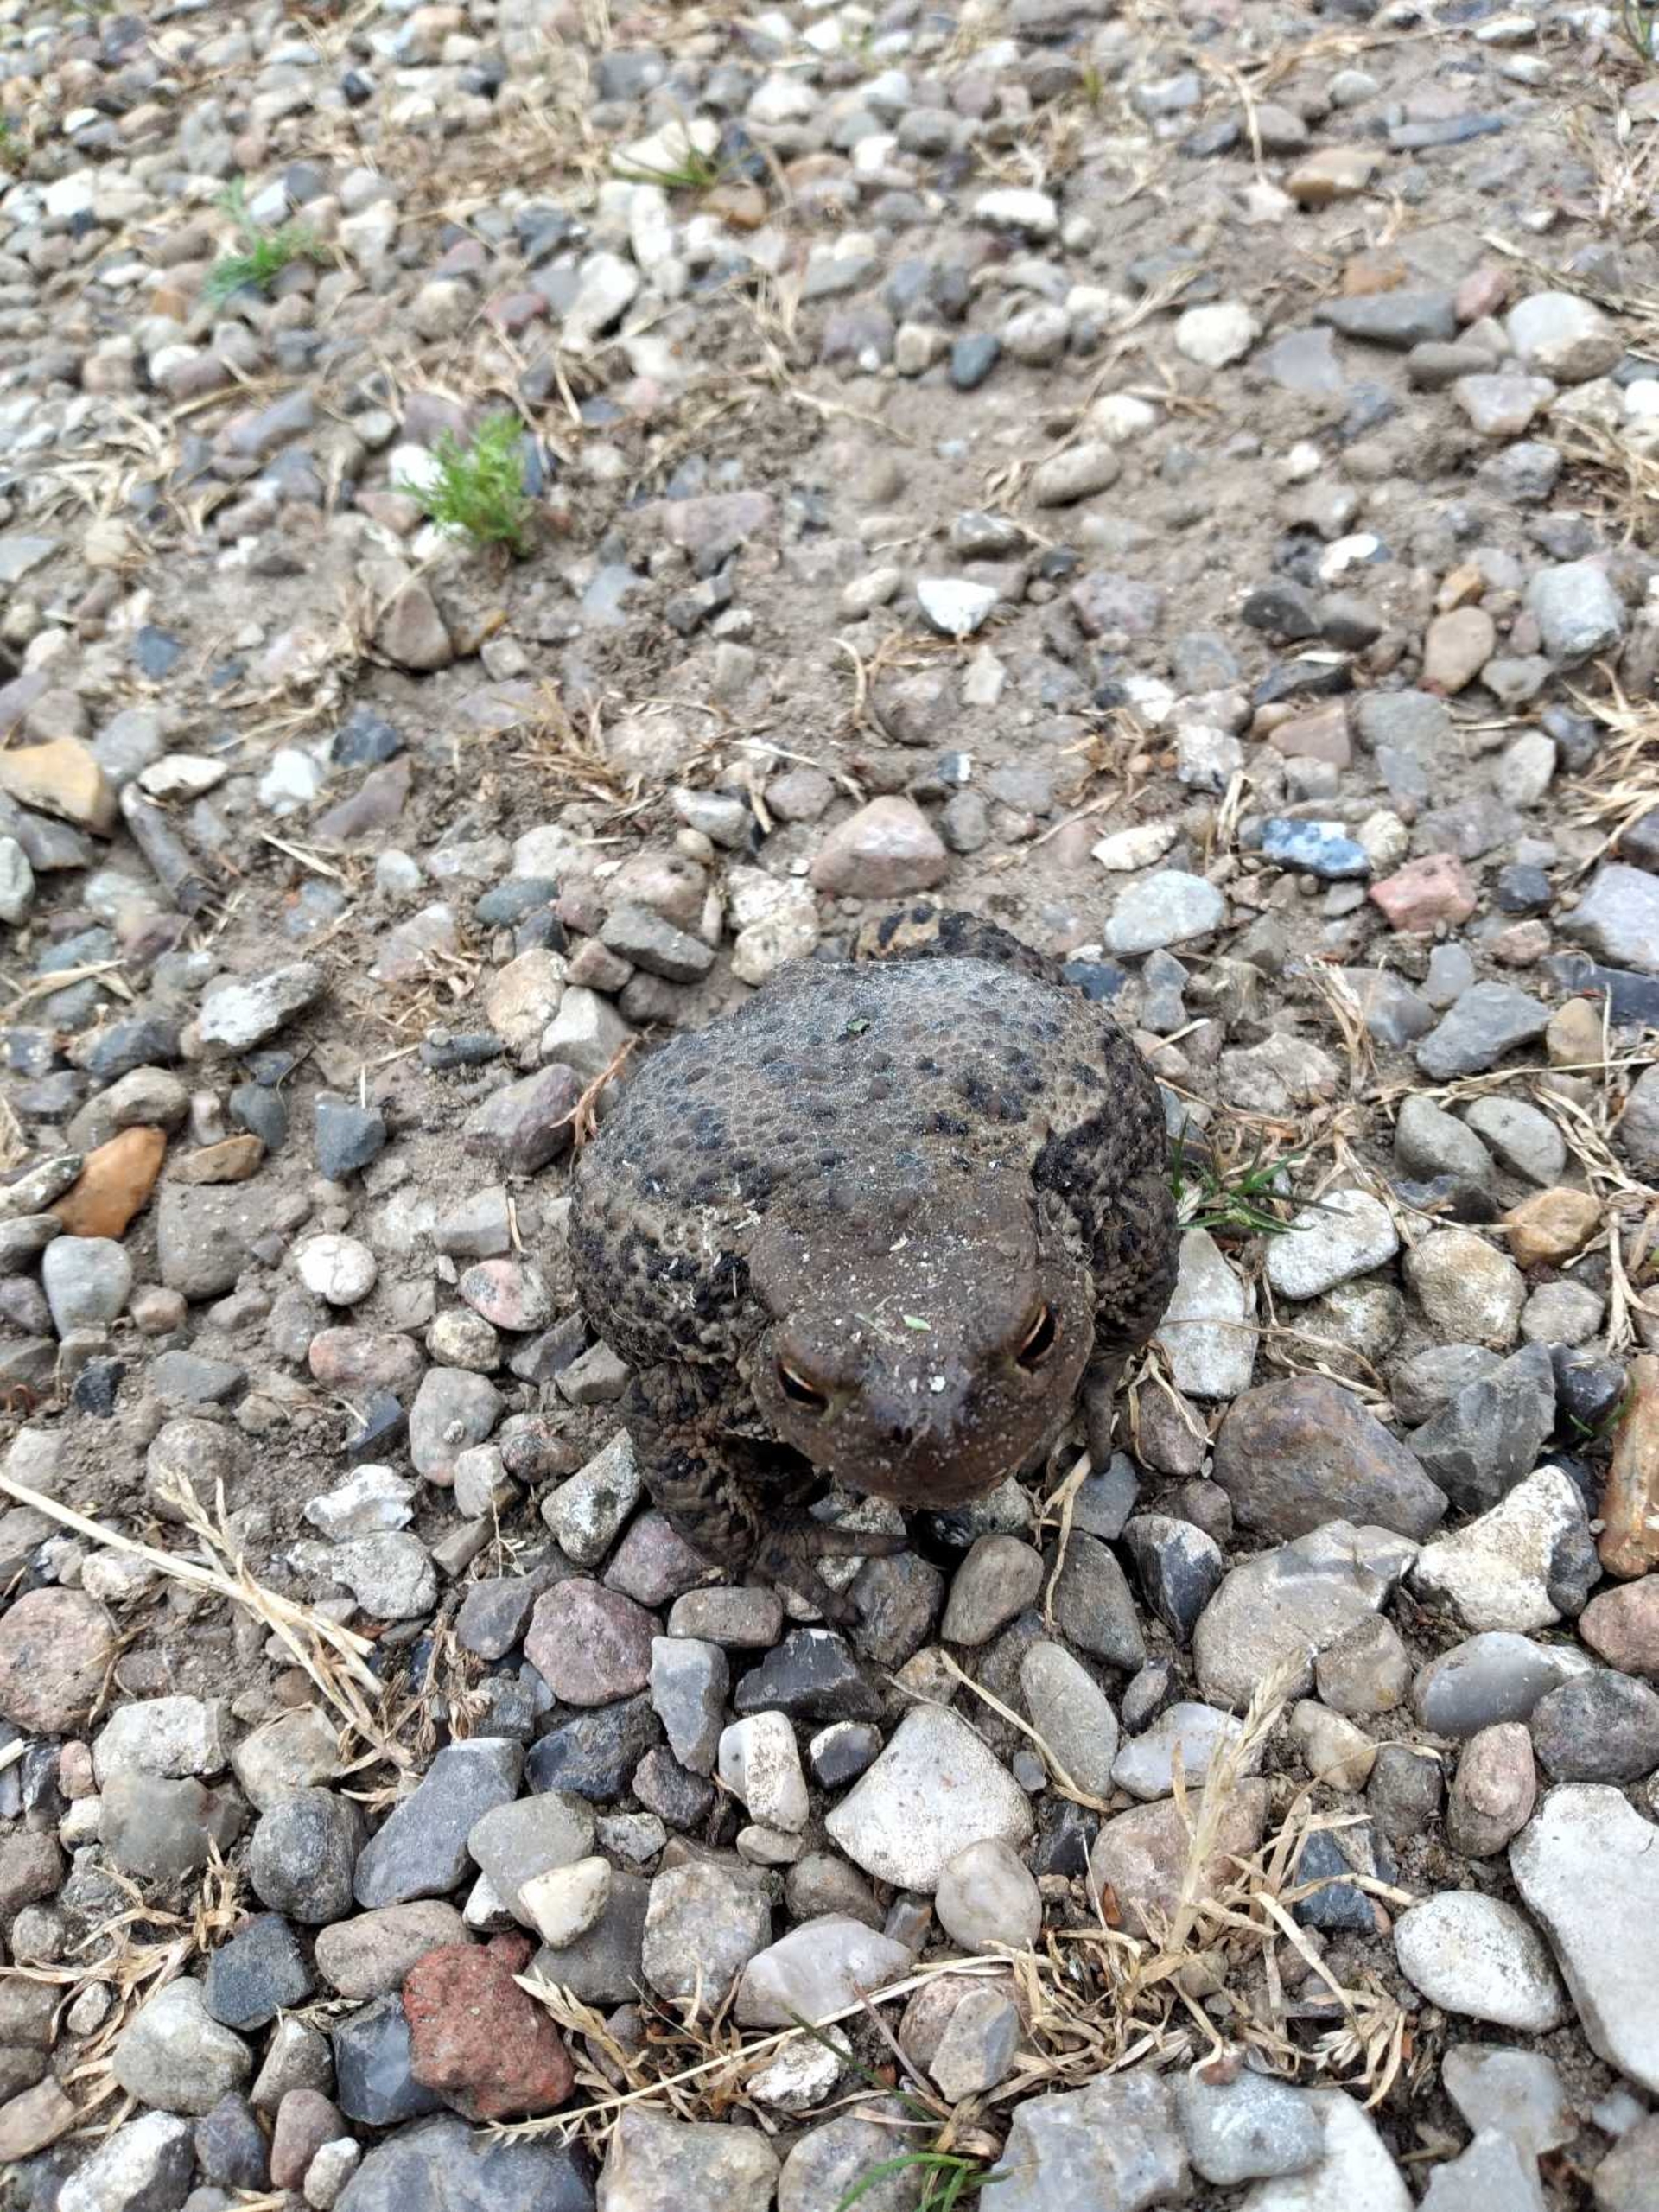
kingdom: Animalia
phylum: Chordata
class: Amphibia
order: Anura
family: Bufonidae
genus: Bufo
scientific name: Bufo bufo
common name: Skrubtudse
